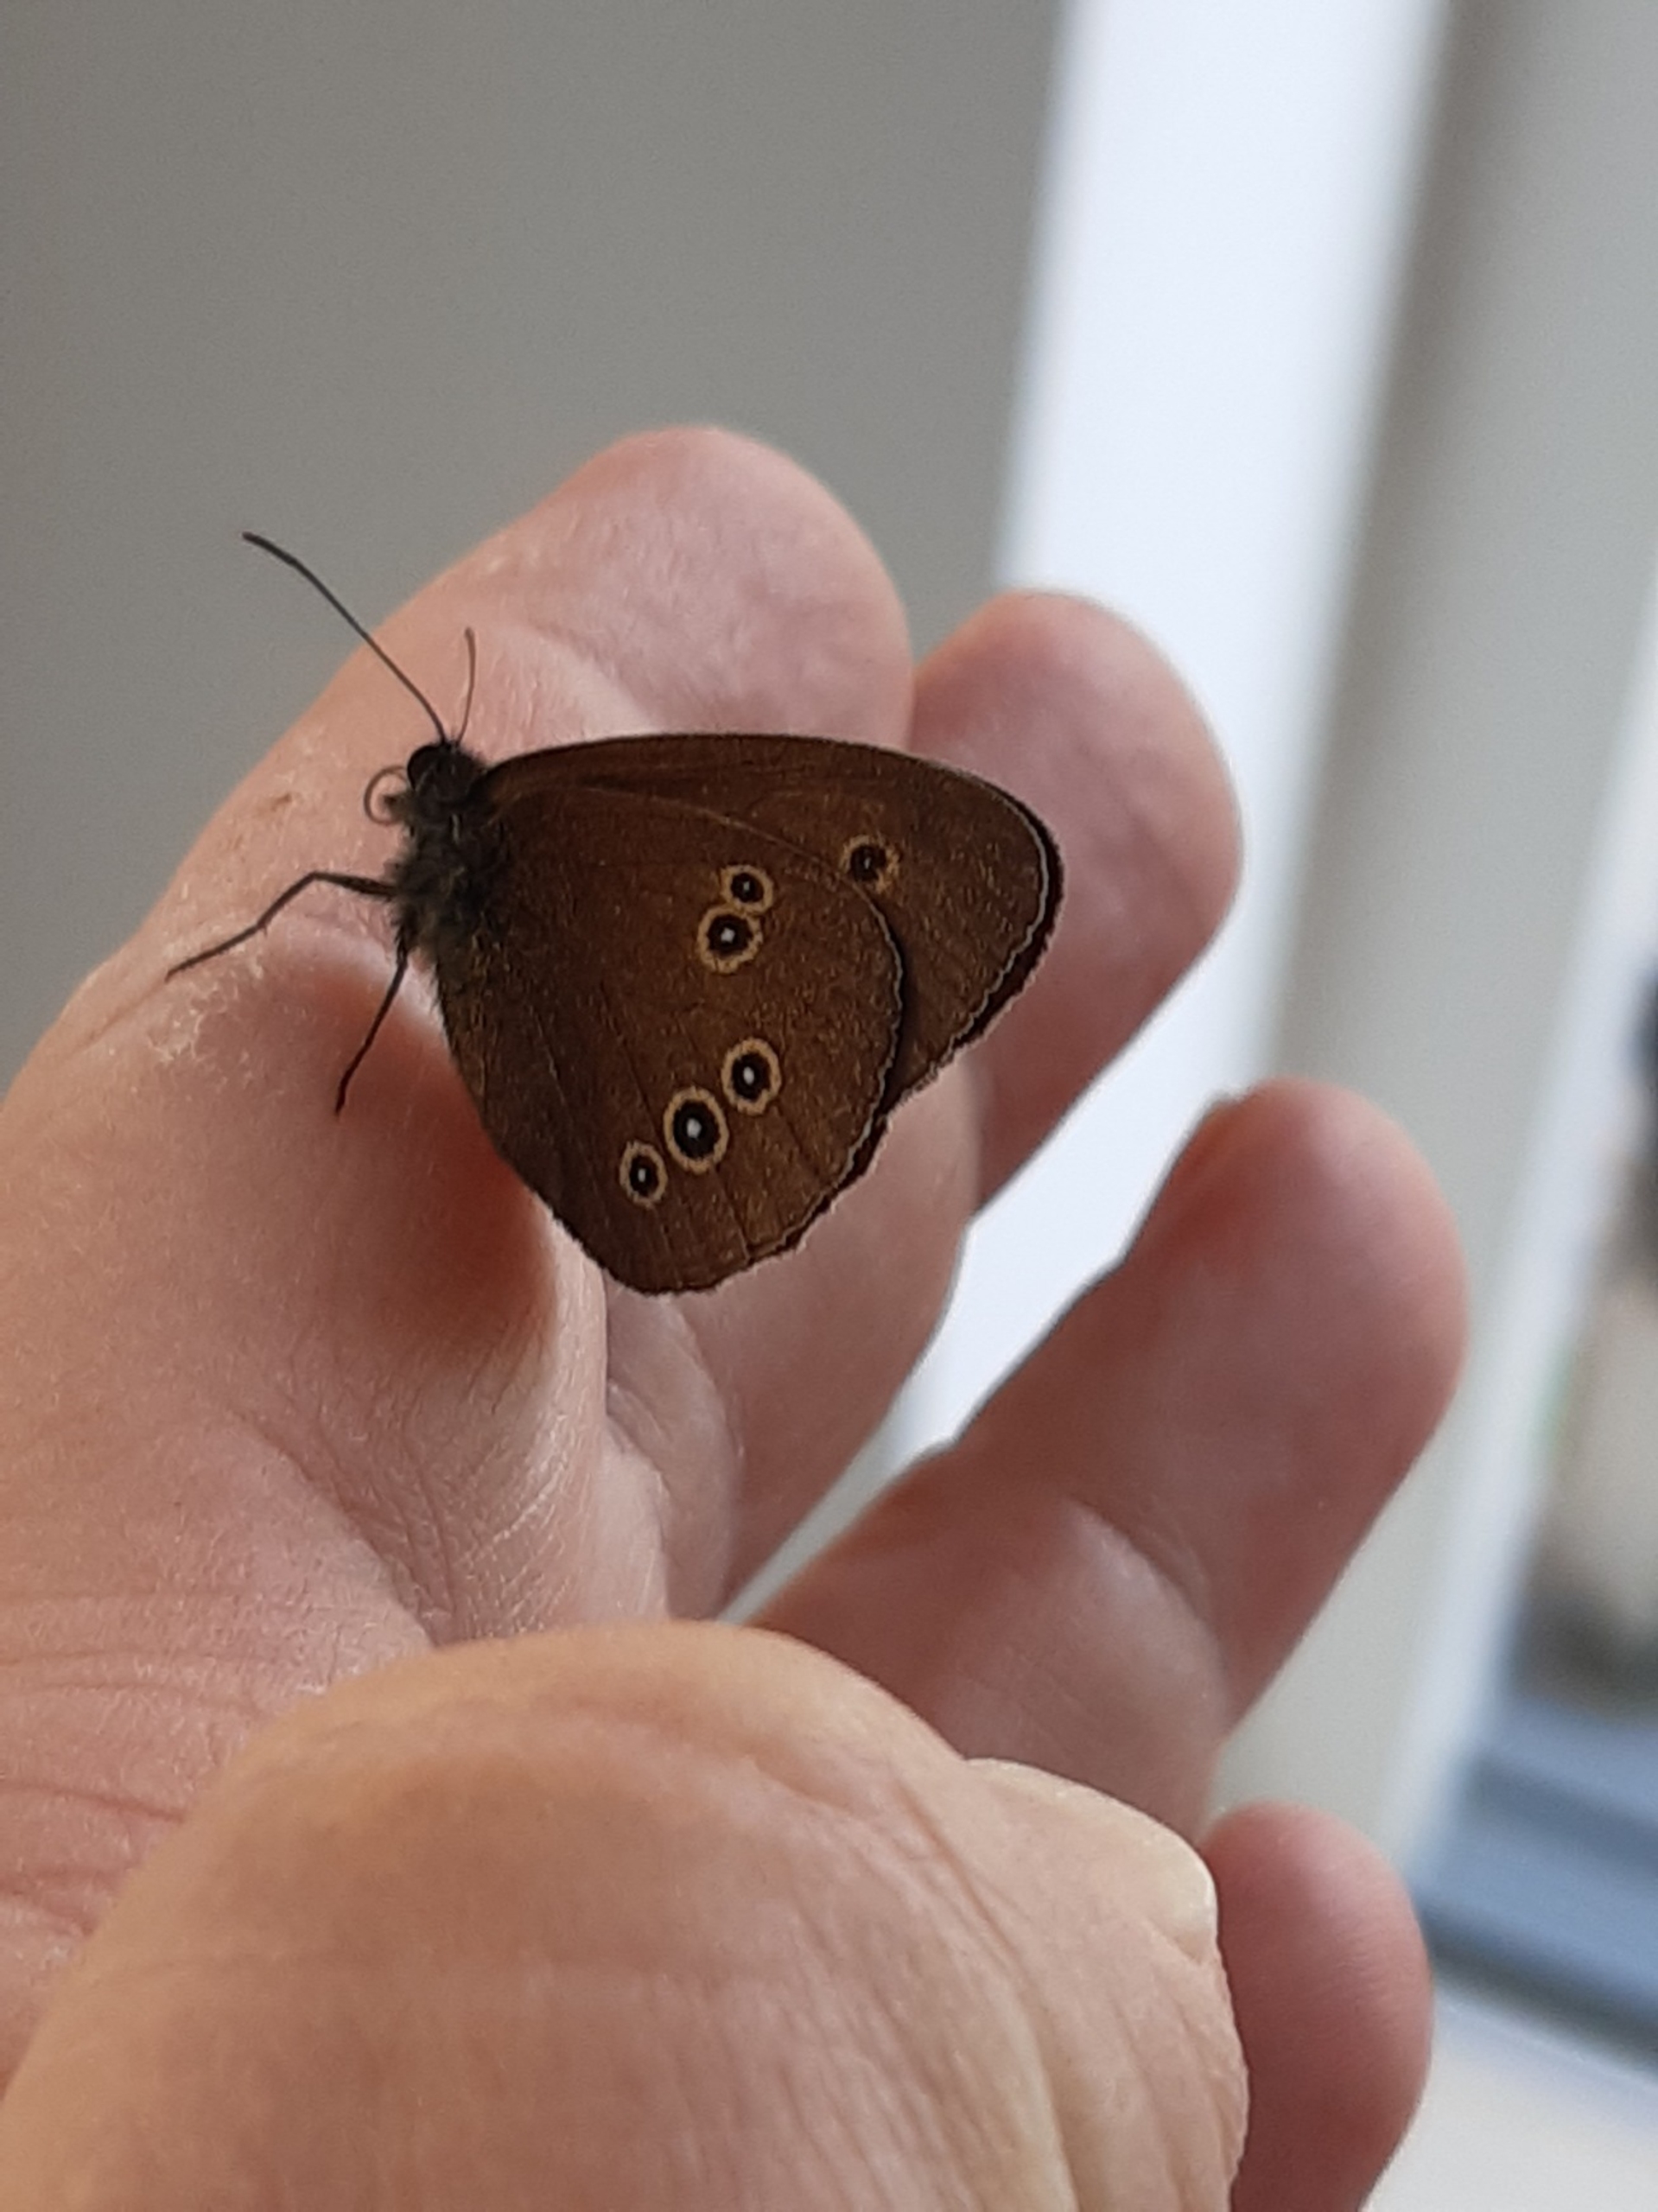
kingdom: Animalia
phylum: Arthropoda
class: Insecta
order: Lepidoptera
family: Nymphalidae
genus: Aphantopus
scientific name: Aphantopus hyperantus
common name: Engrandøje
